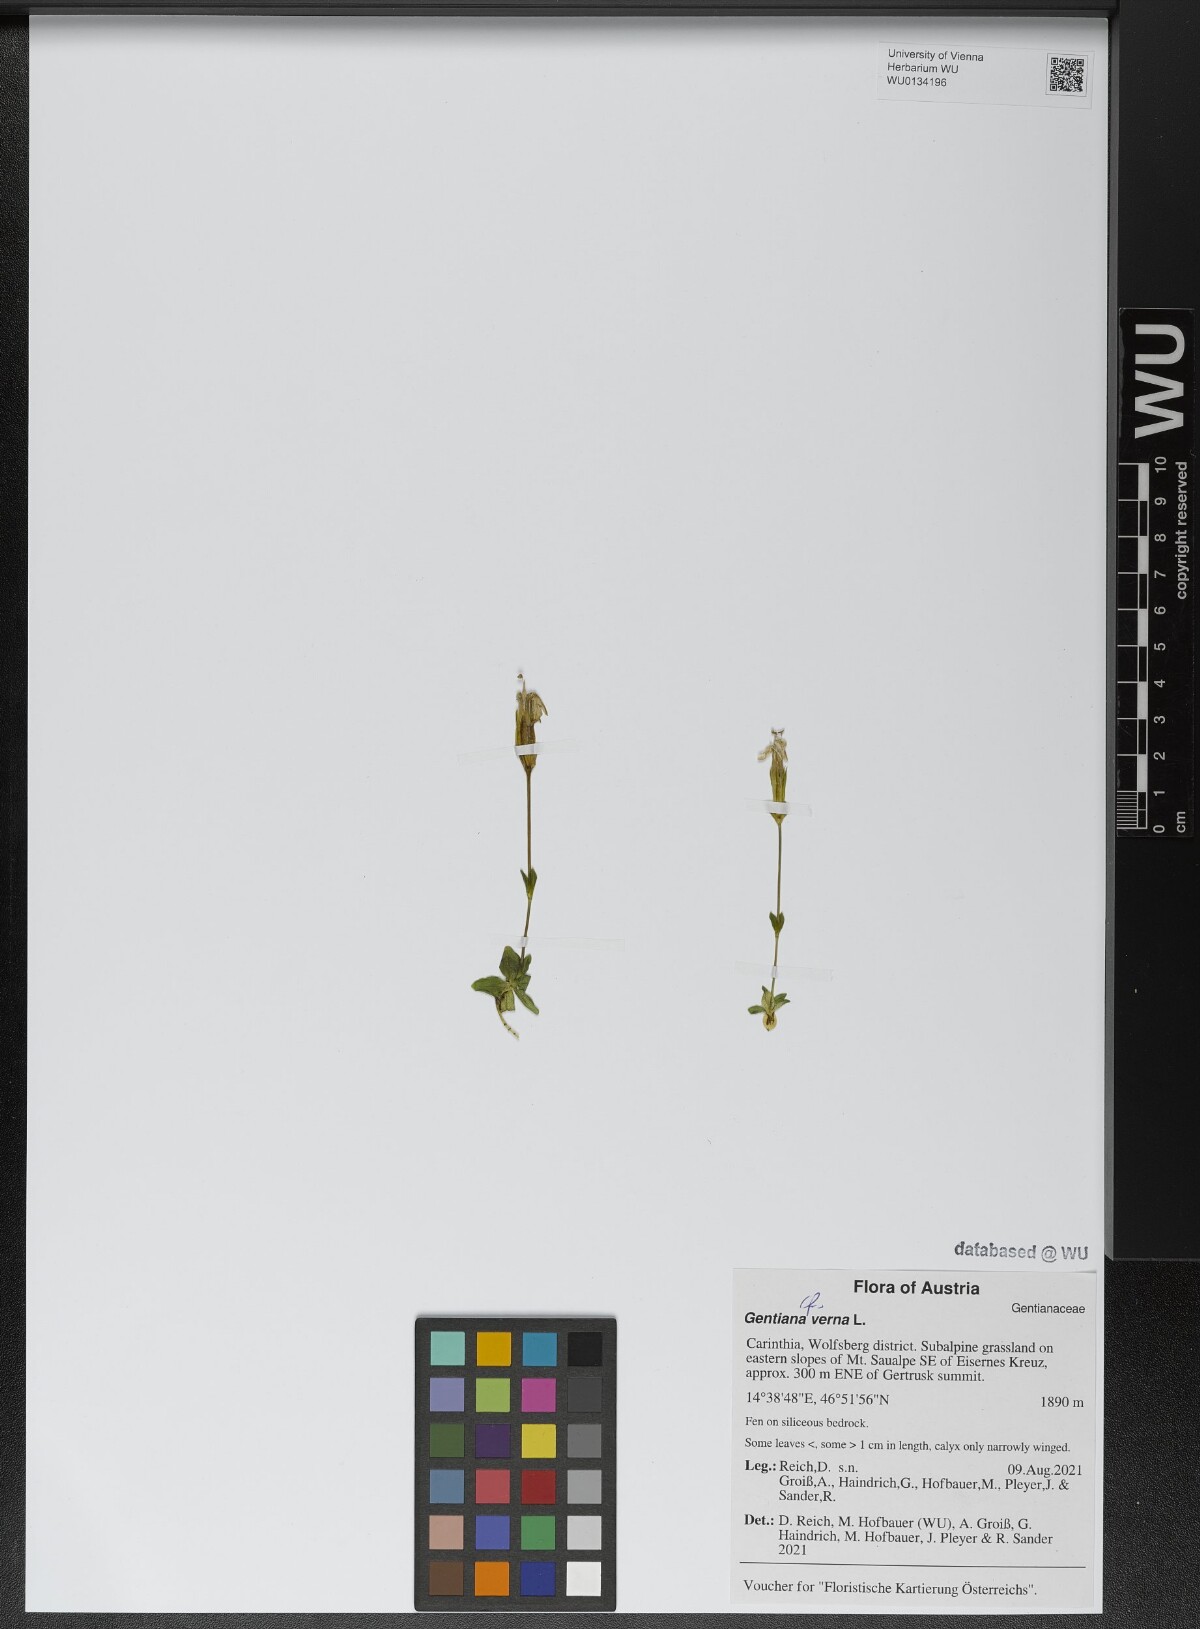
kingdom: Plantae
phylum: Tracheophyta
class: Magnoliopsida
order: Gentianales
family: Gentianaceae
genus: Gentiana
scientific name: Gentiana verna
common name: Spring gentian
